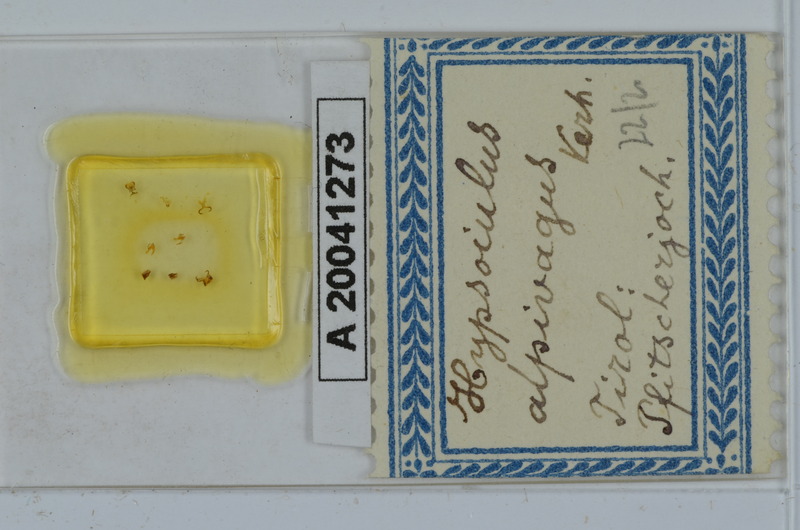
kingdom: Animalia
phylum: Arthropoda
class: Diplopoda
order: Julida
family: Julidae
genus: Hypsoiulus
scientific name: Hypsoiulus alpivagus
